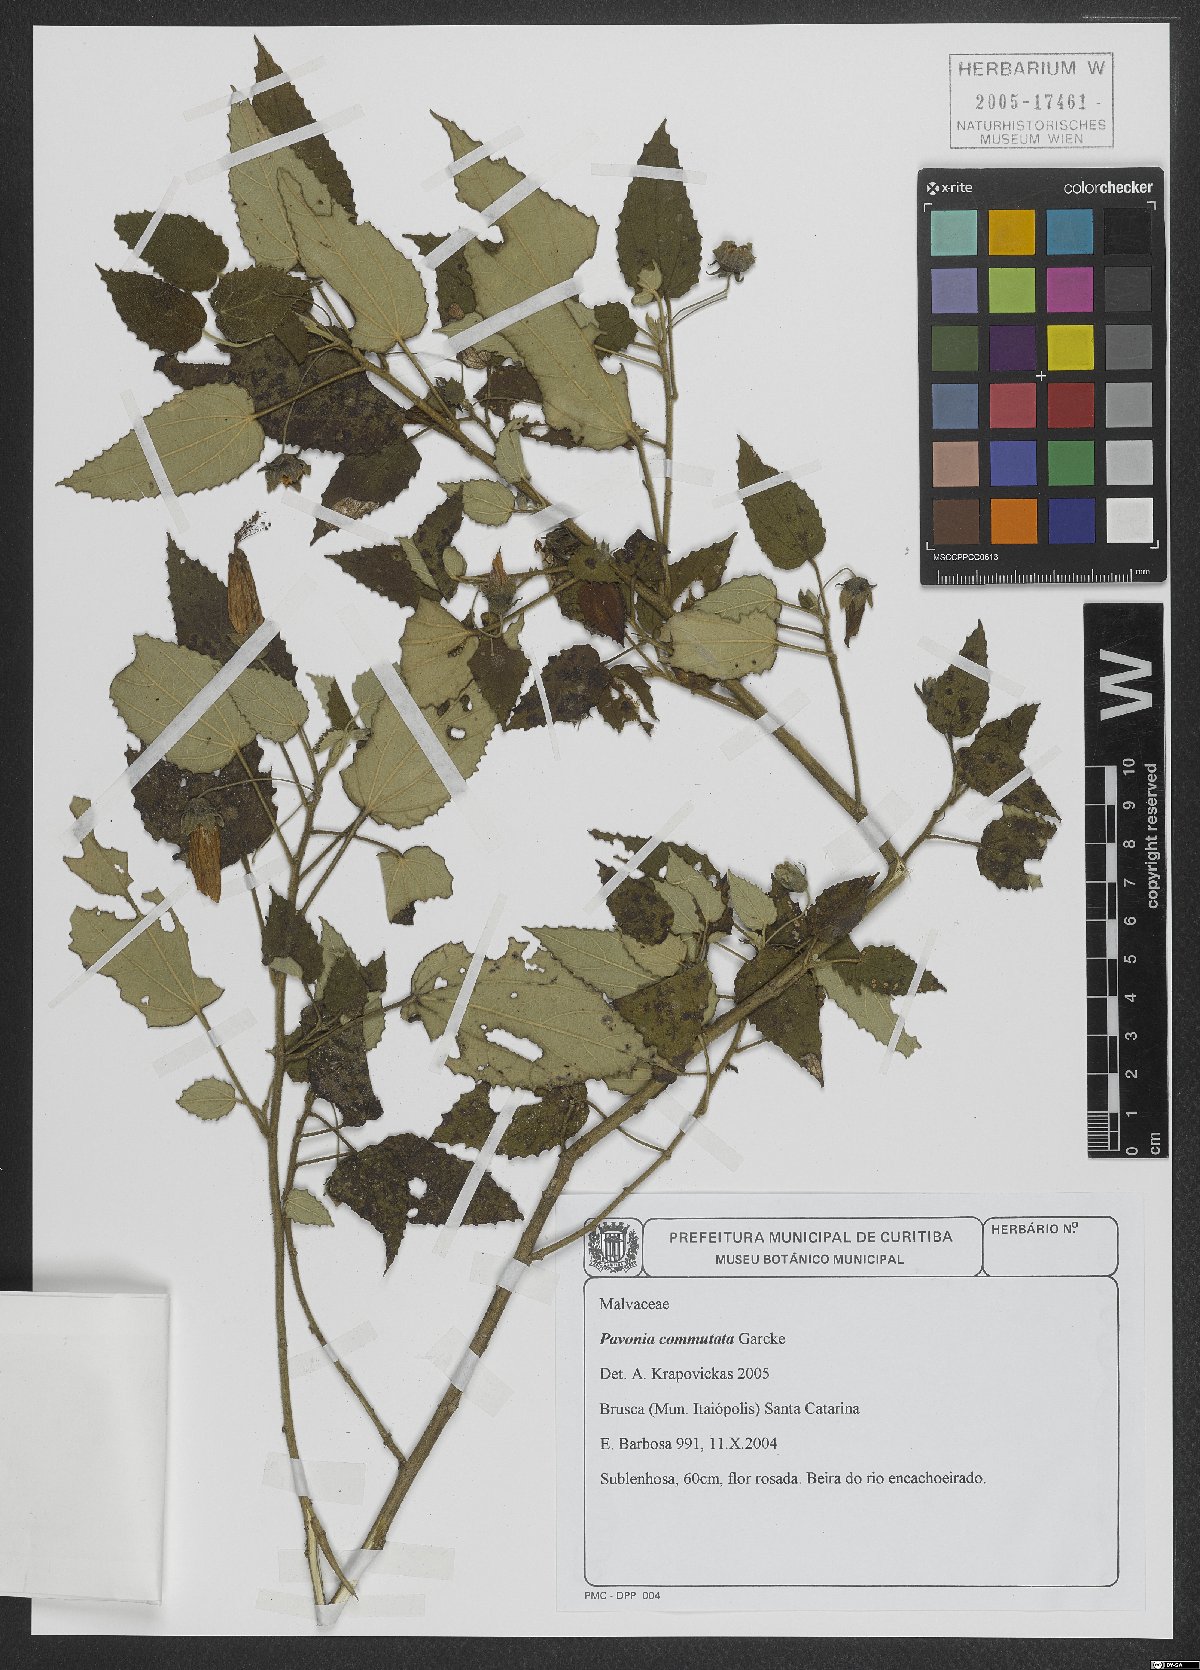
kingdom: Plantae
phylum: Tracheophyta
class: Magnoliopsida
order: Malvales
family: Malvaceae
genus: Pavonia
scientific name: Pavonia commutata
